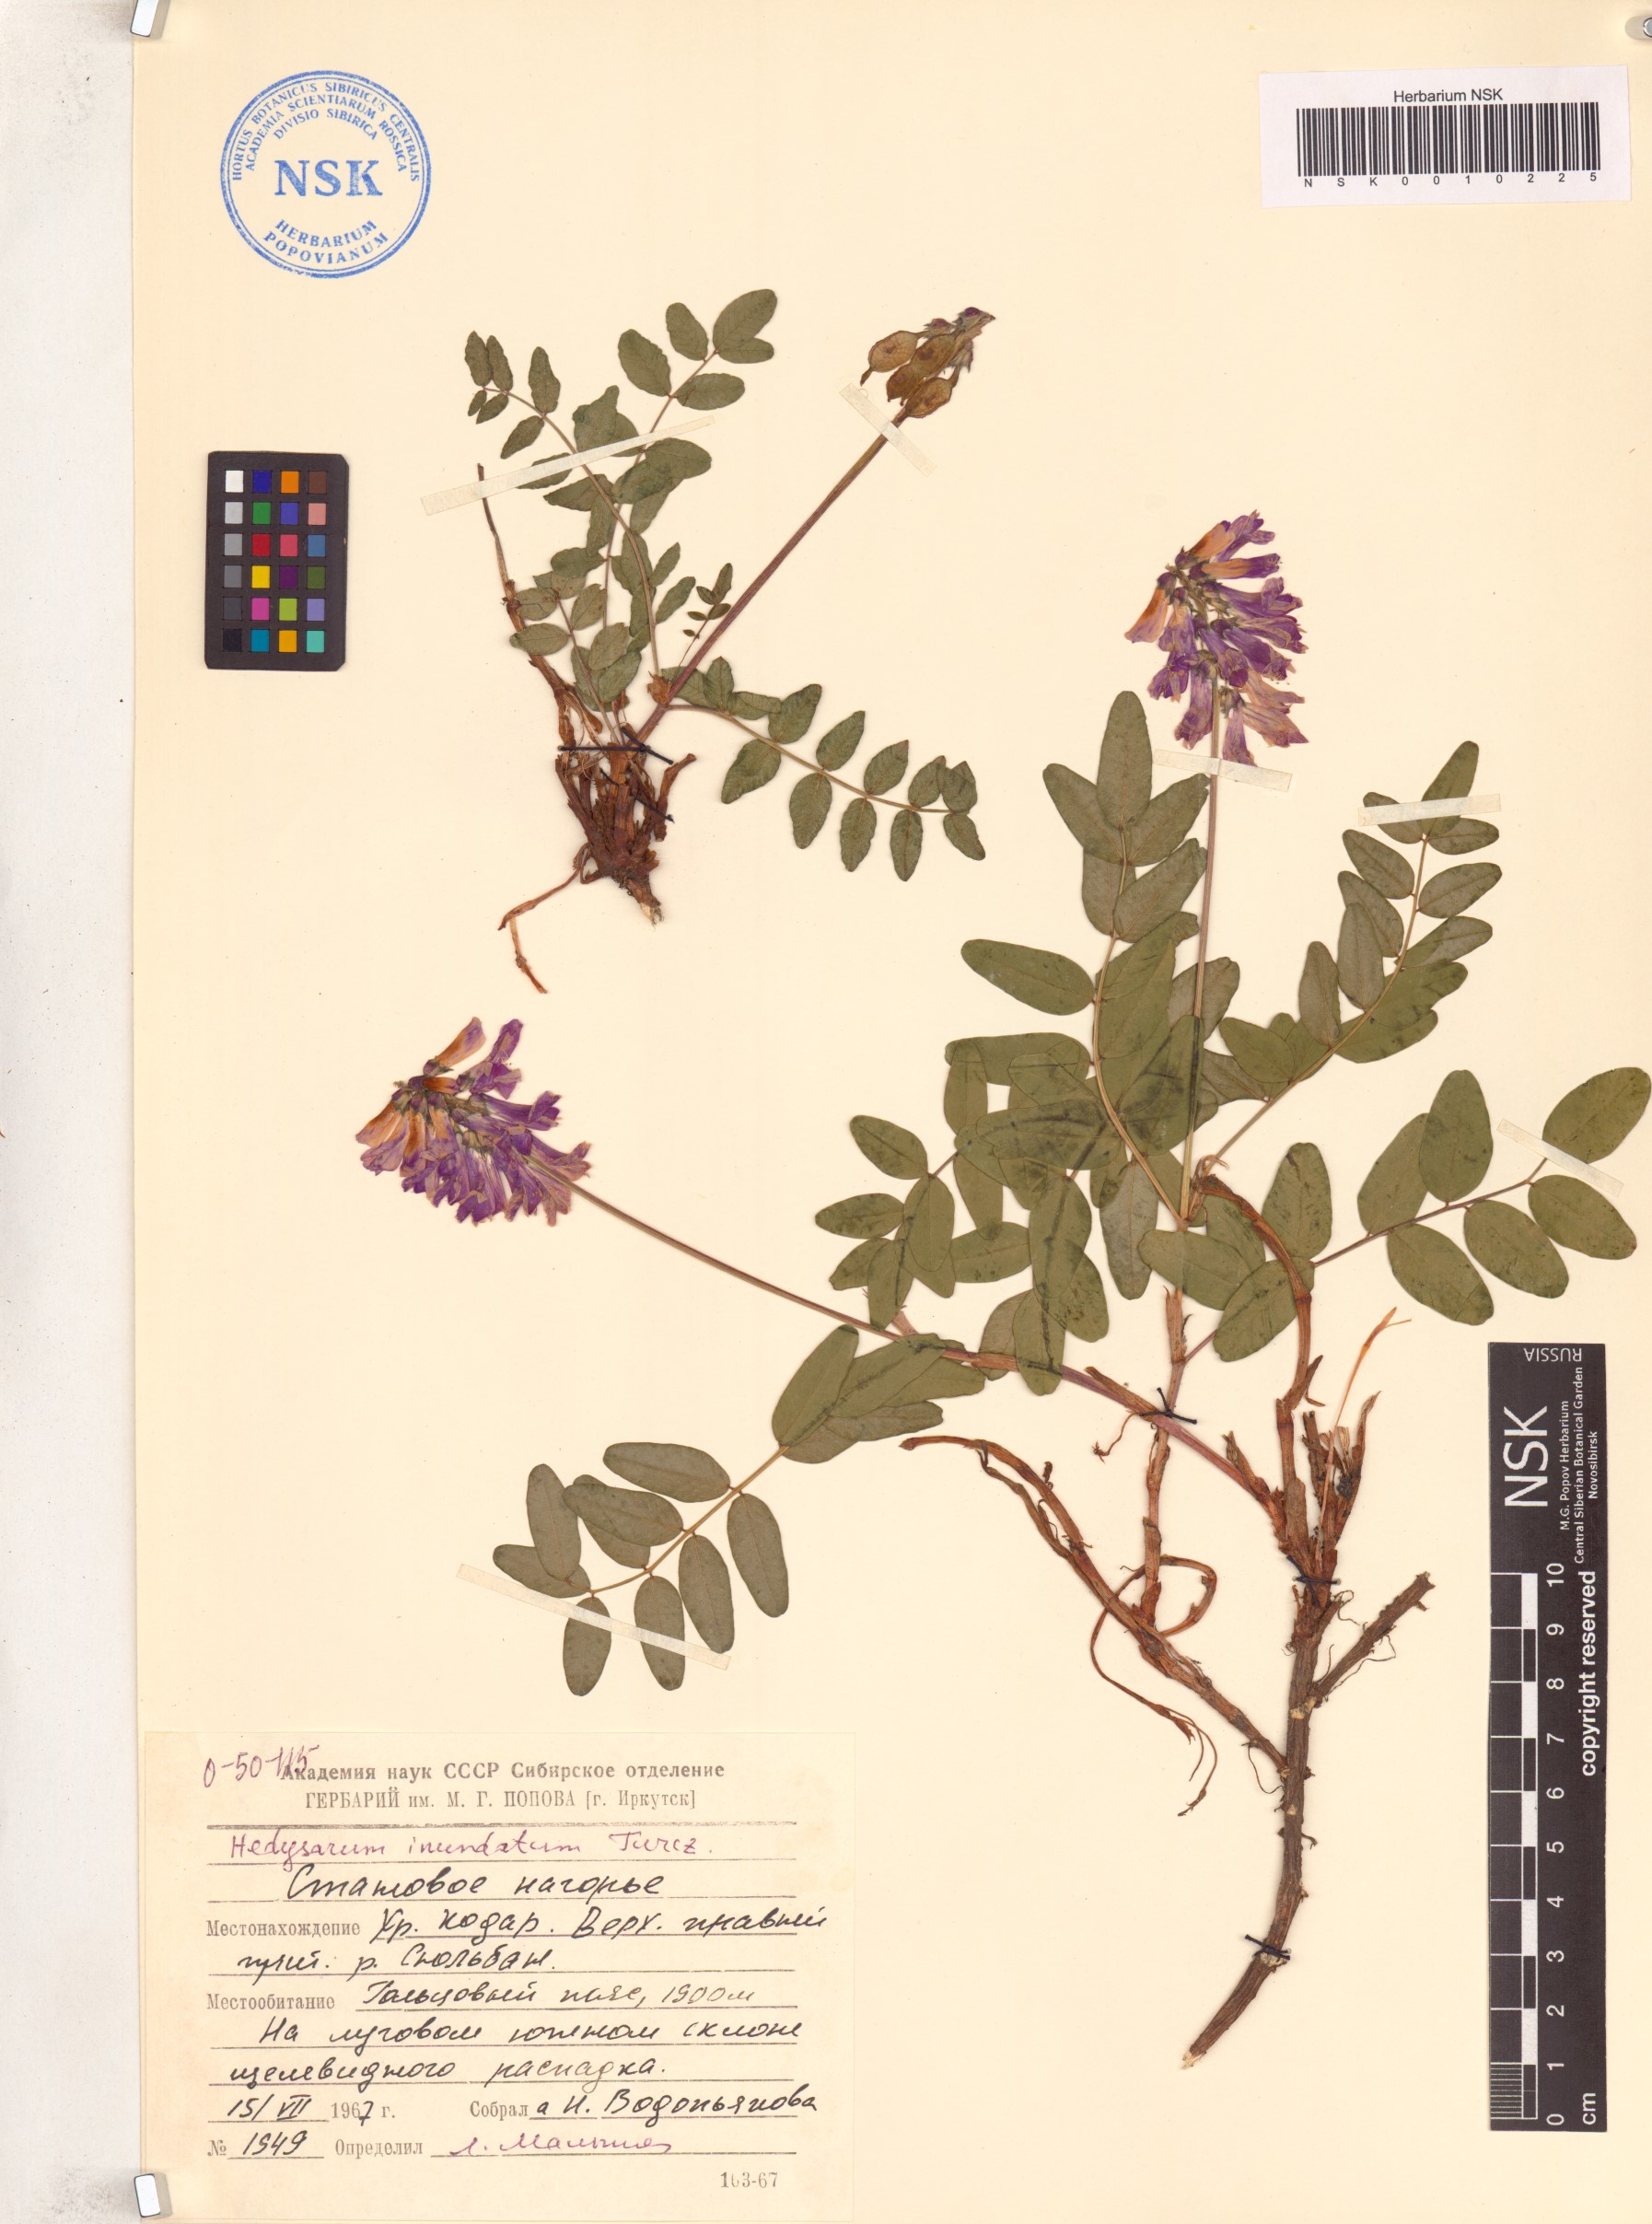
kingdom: Plantae
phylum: Tracheophyta
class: Magnoliopsida
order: Fabales
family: Fabaceae
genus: Hedysarum
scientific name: Hedysarum inundatum
